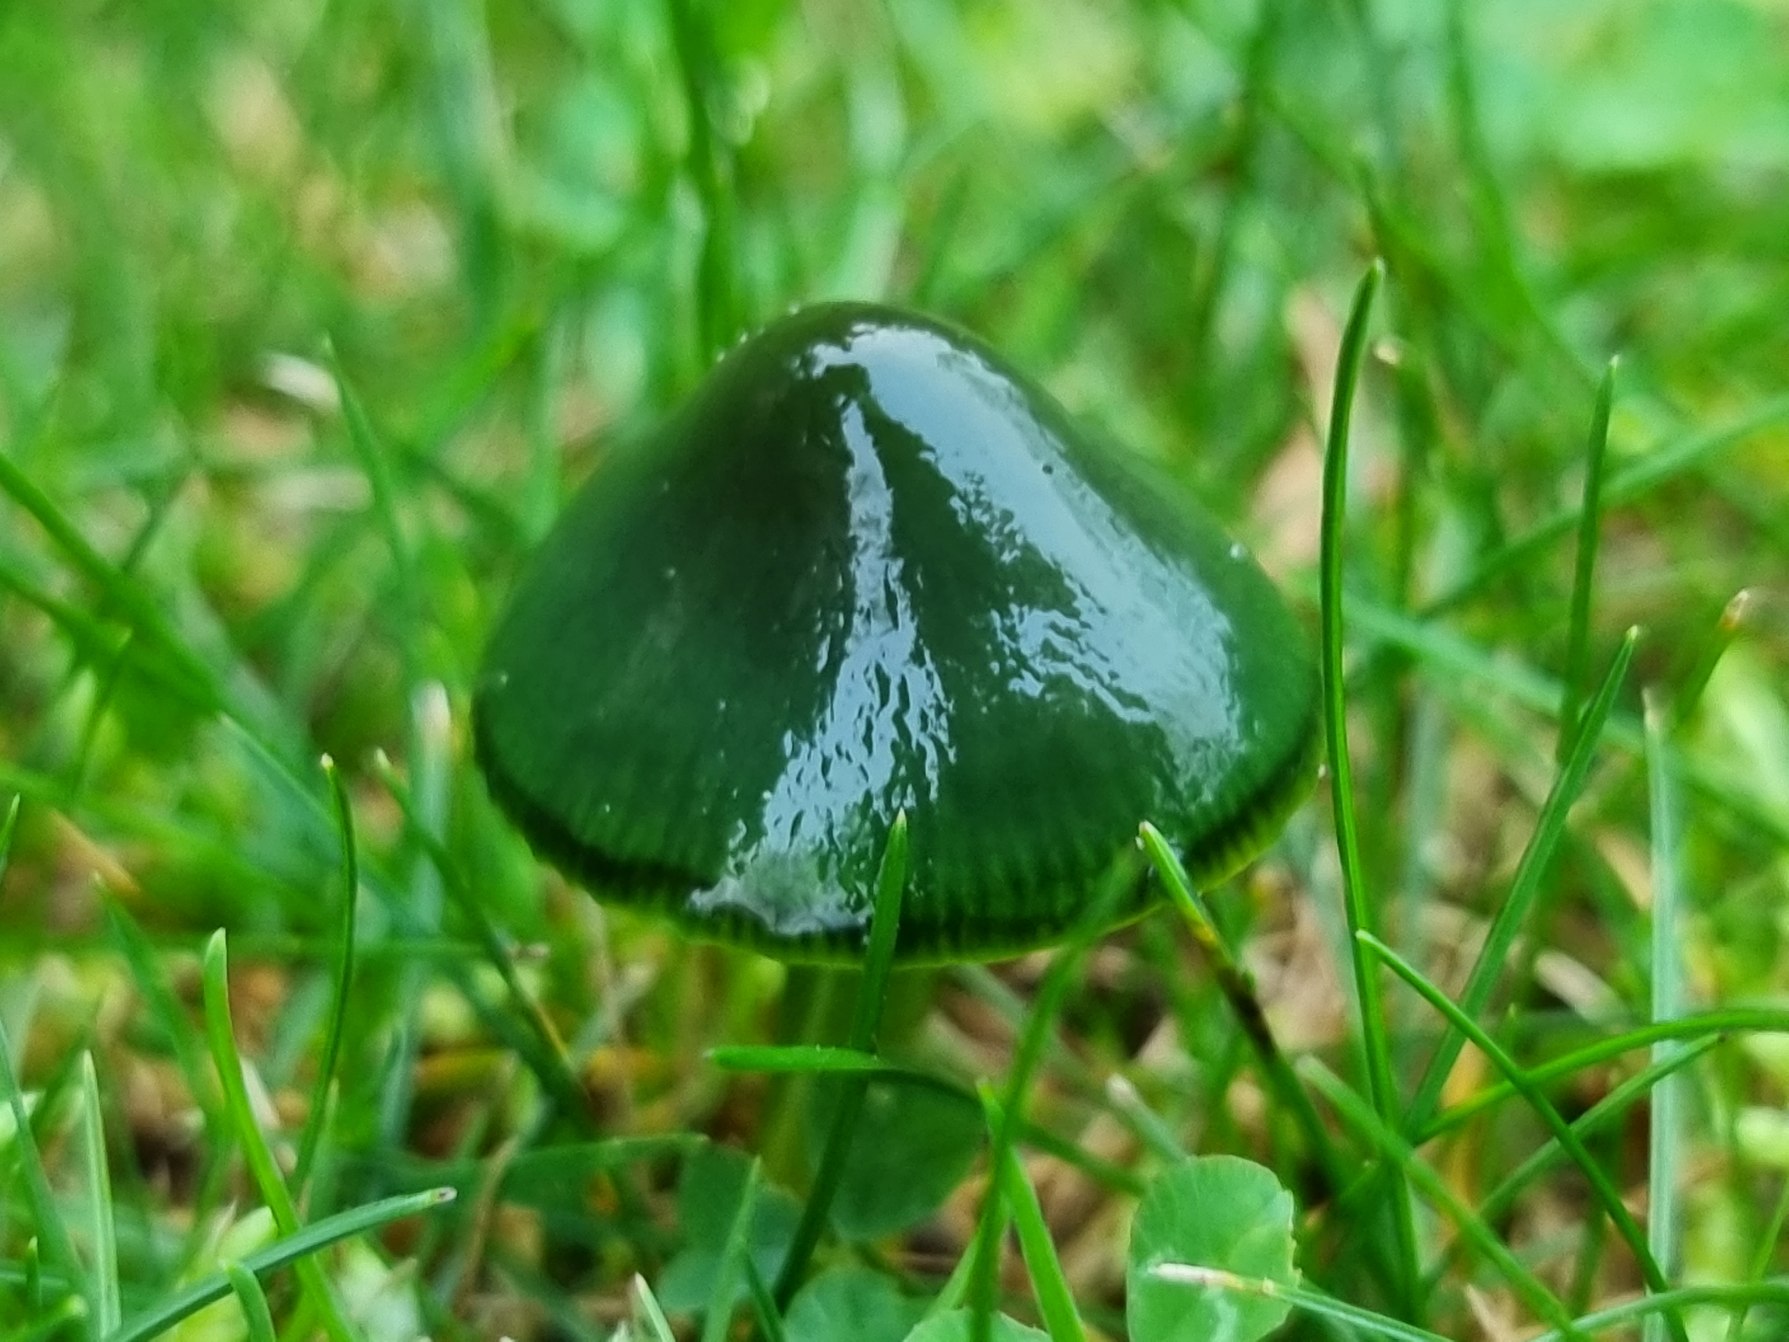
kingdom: Fungi
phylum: Basidiomycota
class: Agaricomycetes
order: Agaricales
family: Hygrophoraceae
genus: Gliophorus
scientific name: Gliophorus psittacinus
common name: Papegøje-vokshat
